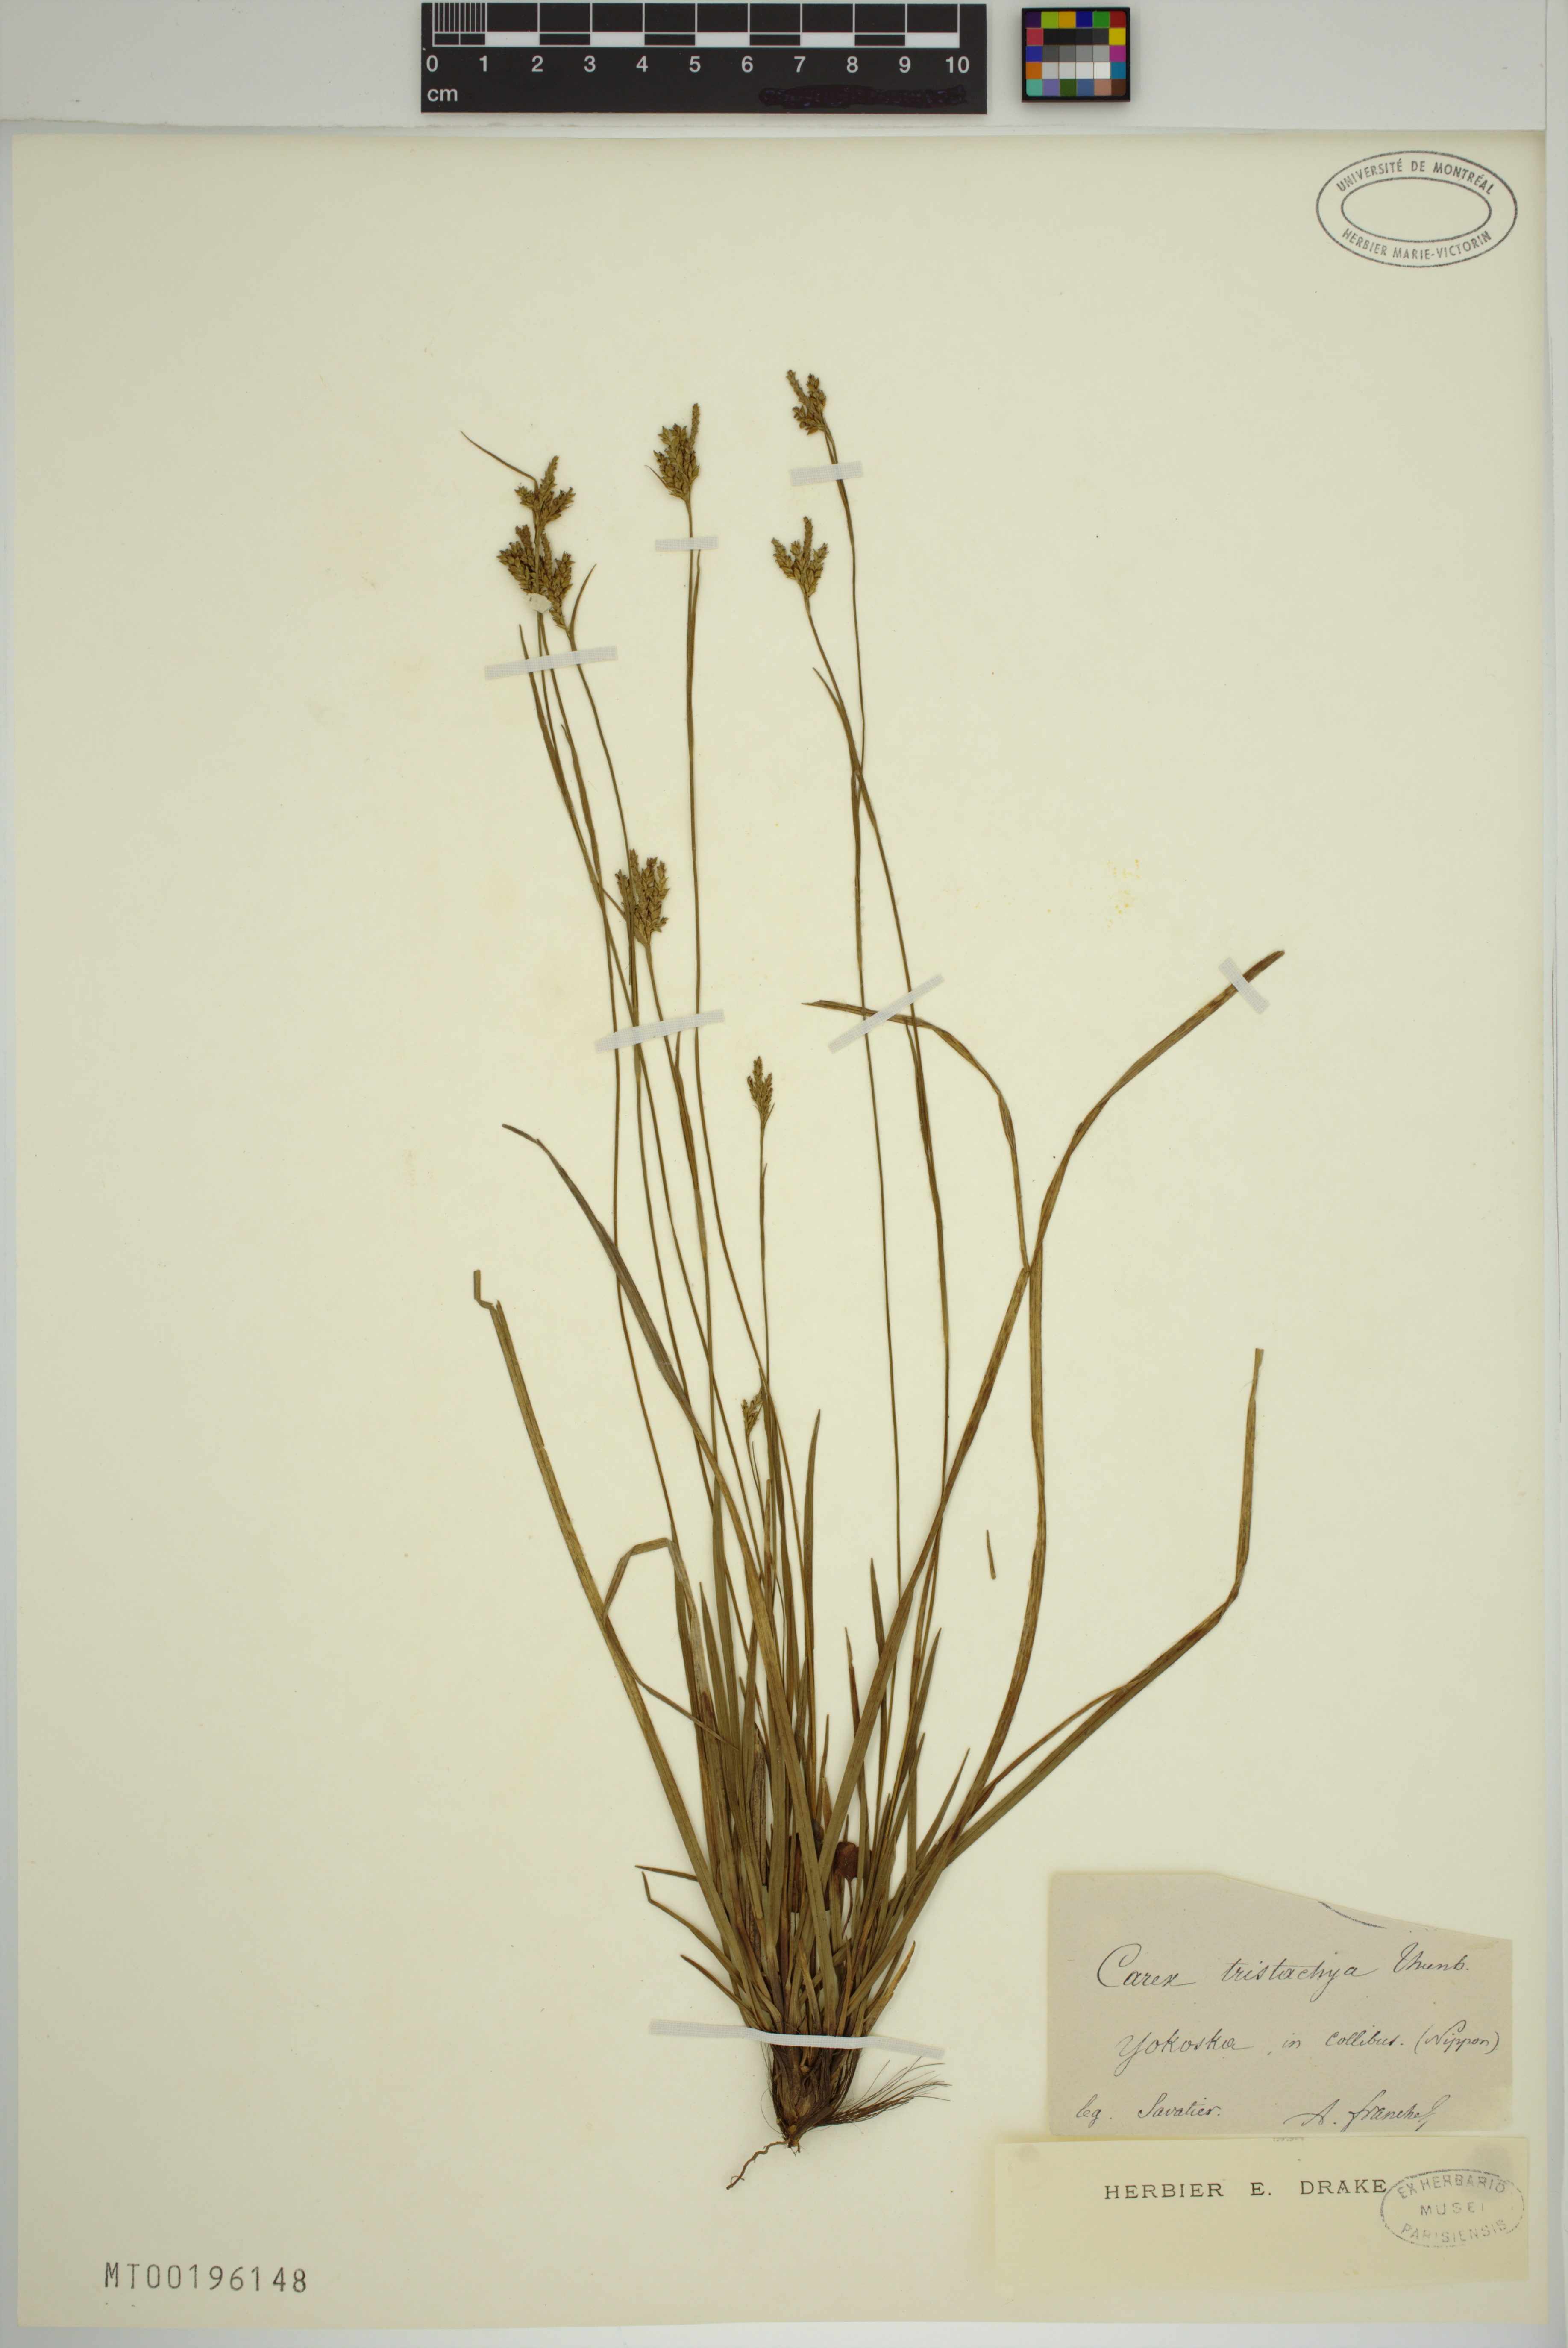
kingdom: Plantae
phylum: Tracheophyta
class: Liliopsida
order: Poales
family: Cyperaceae
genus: Carex
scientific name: Carex tristachya
